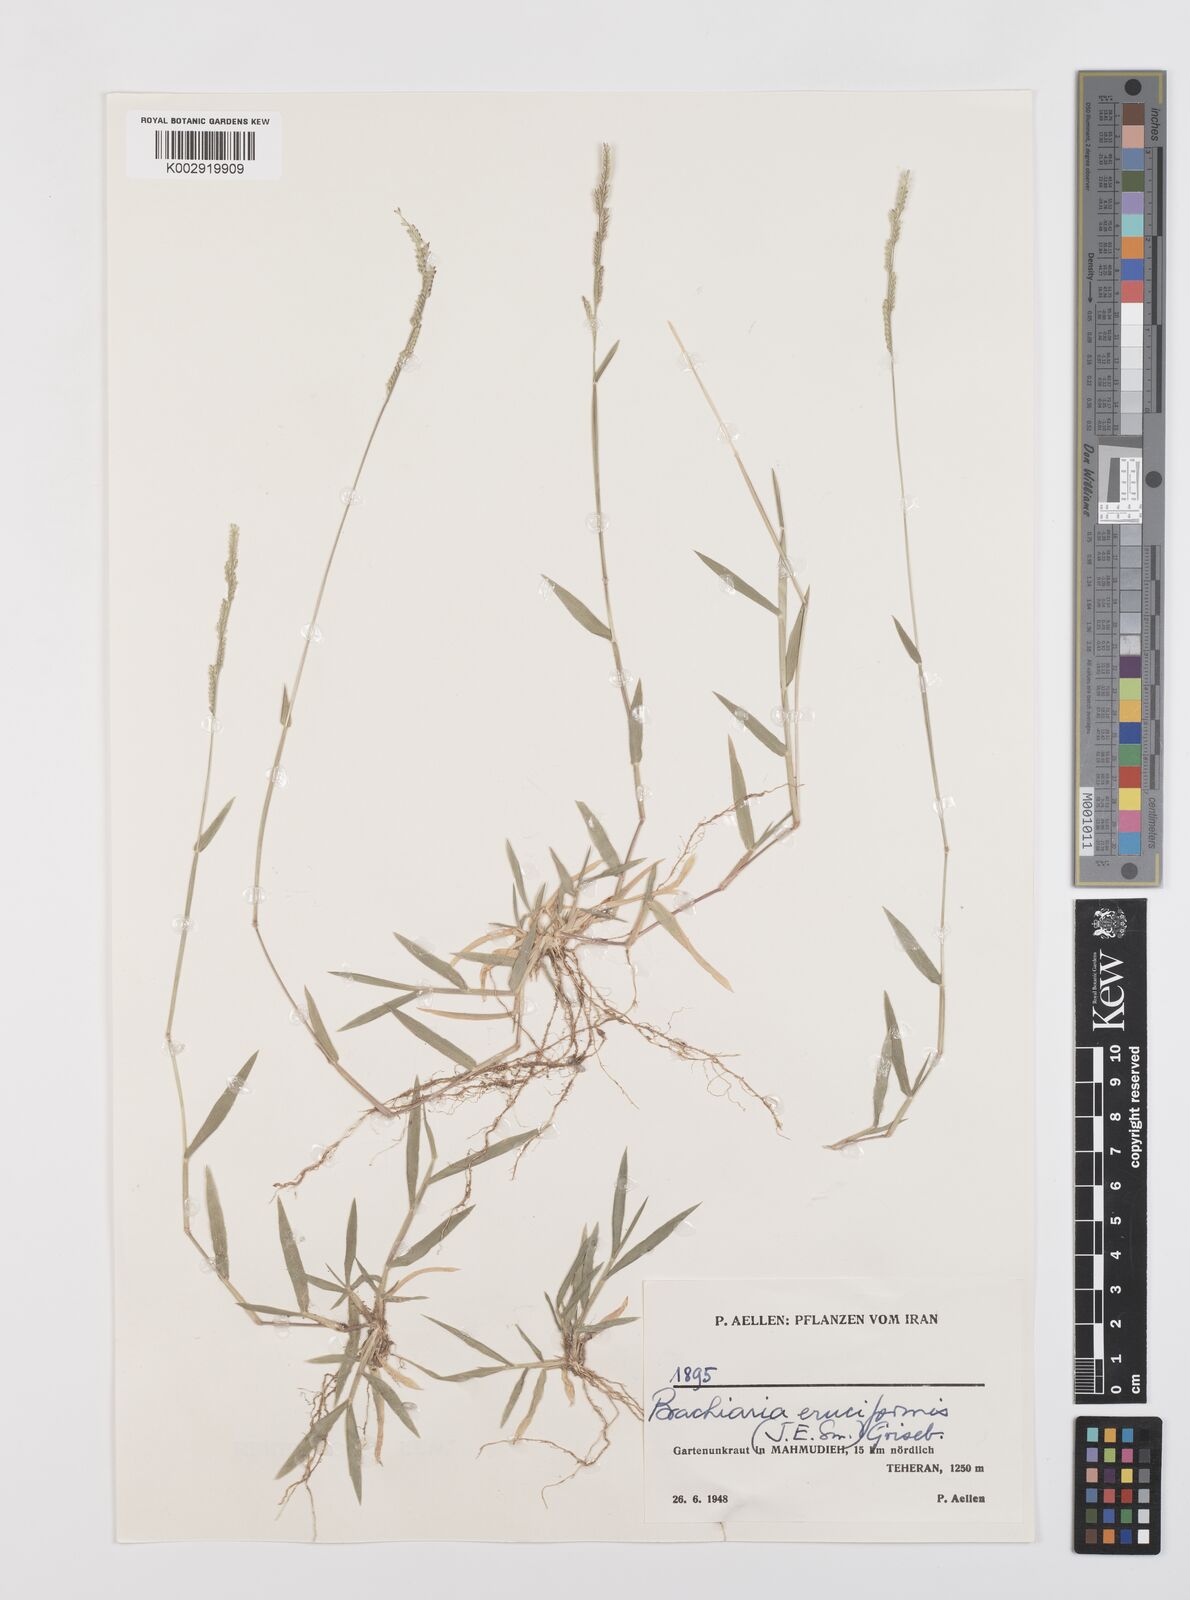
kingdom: Plantae
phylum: Tracheophyta
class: Liliopsida
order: Poales
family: Poaceae
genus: Moorochloa
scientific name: Moorochloa eruciformis
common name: Sweet signalgrass
